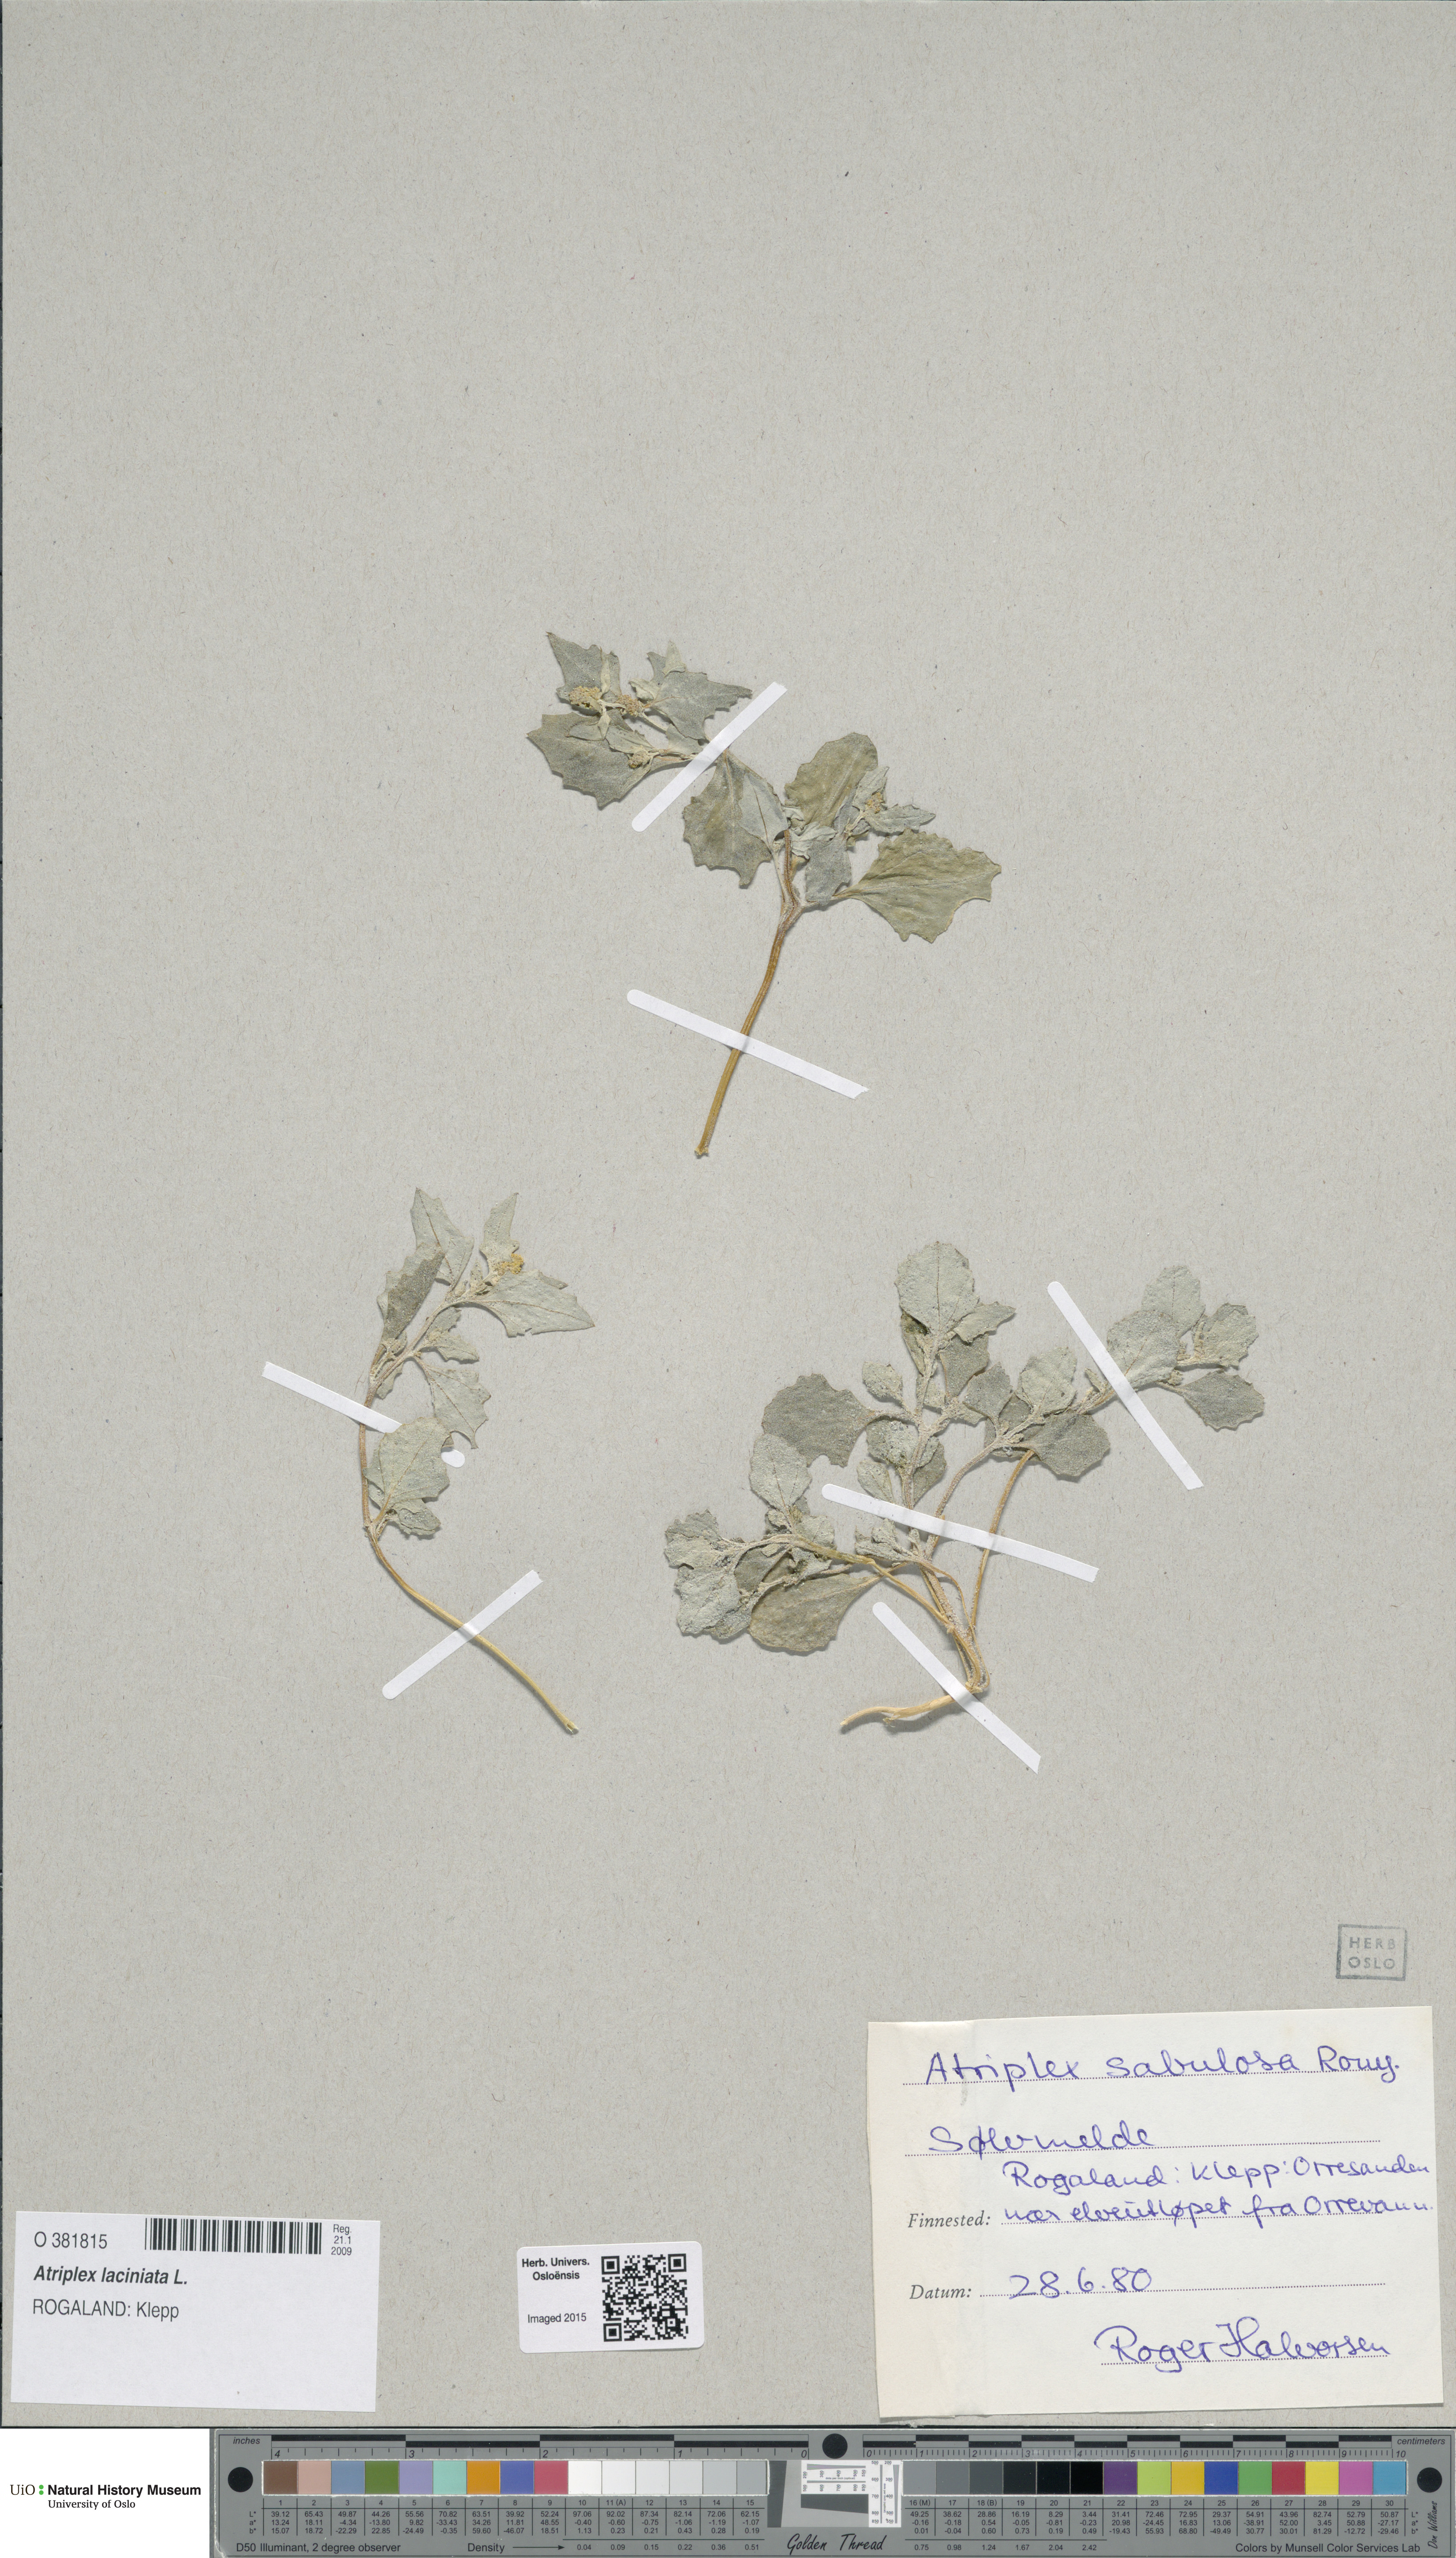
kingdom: Plantae
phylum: Tracheophyta
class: Magnoliopsida
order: Caryophyllales
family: Amaranthaceae
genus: Atriplex
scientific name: Atriplex laciniata
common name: Frosted orache
